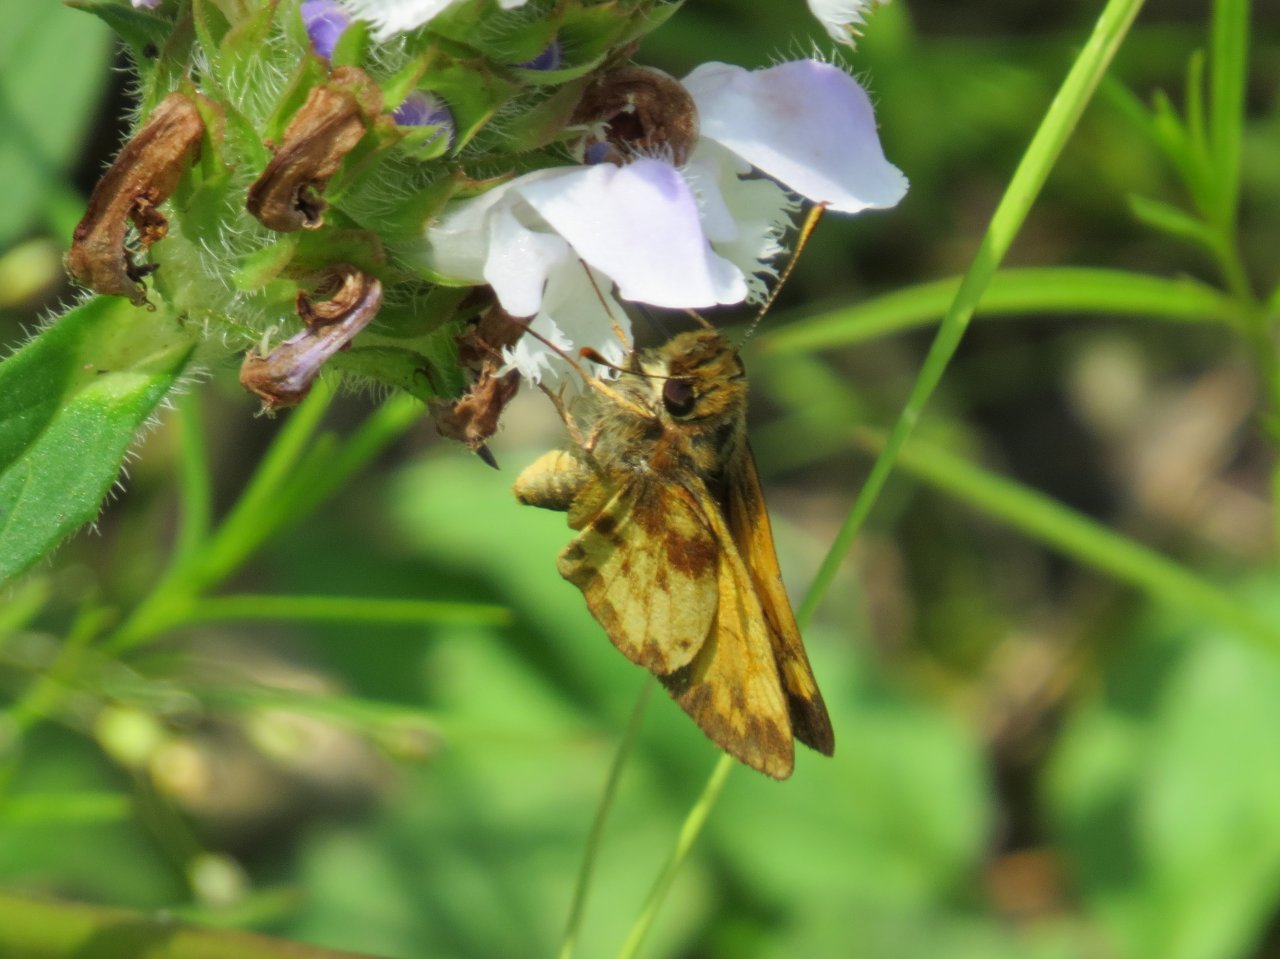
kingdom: Animalia
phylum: Arthropoda
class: Insecta
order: Lepidoptera
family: Hesperiidae
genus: Lon
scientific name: Lon zabulon
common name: Zabulon Skipper
